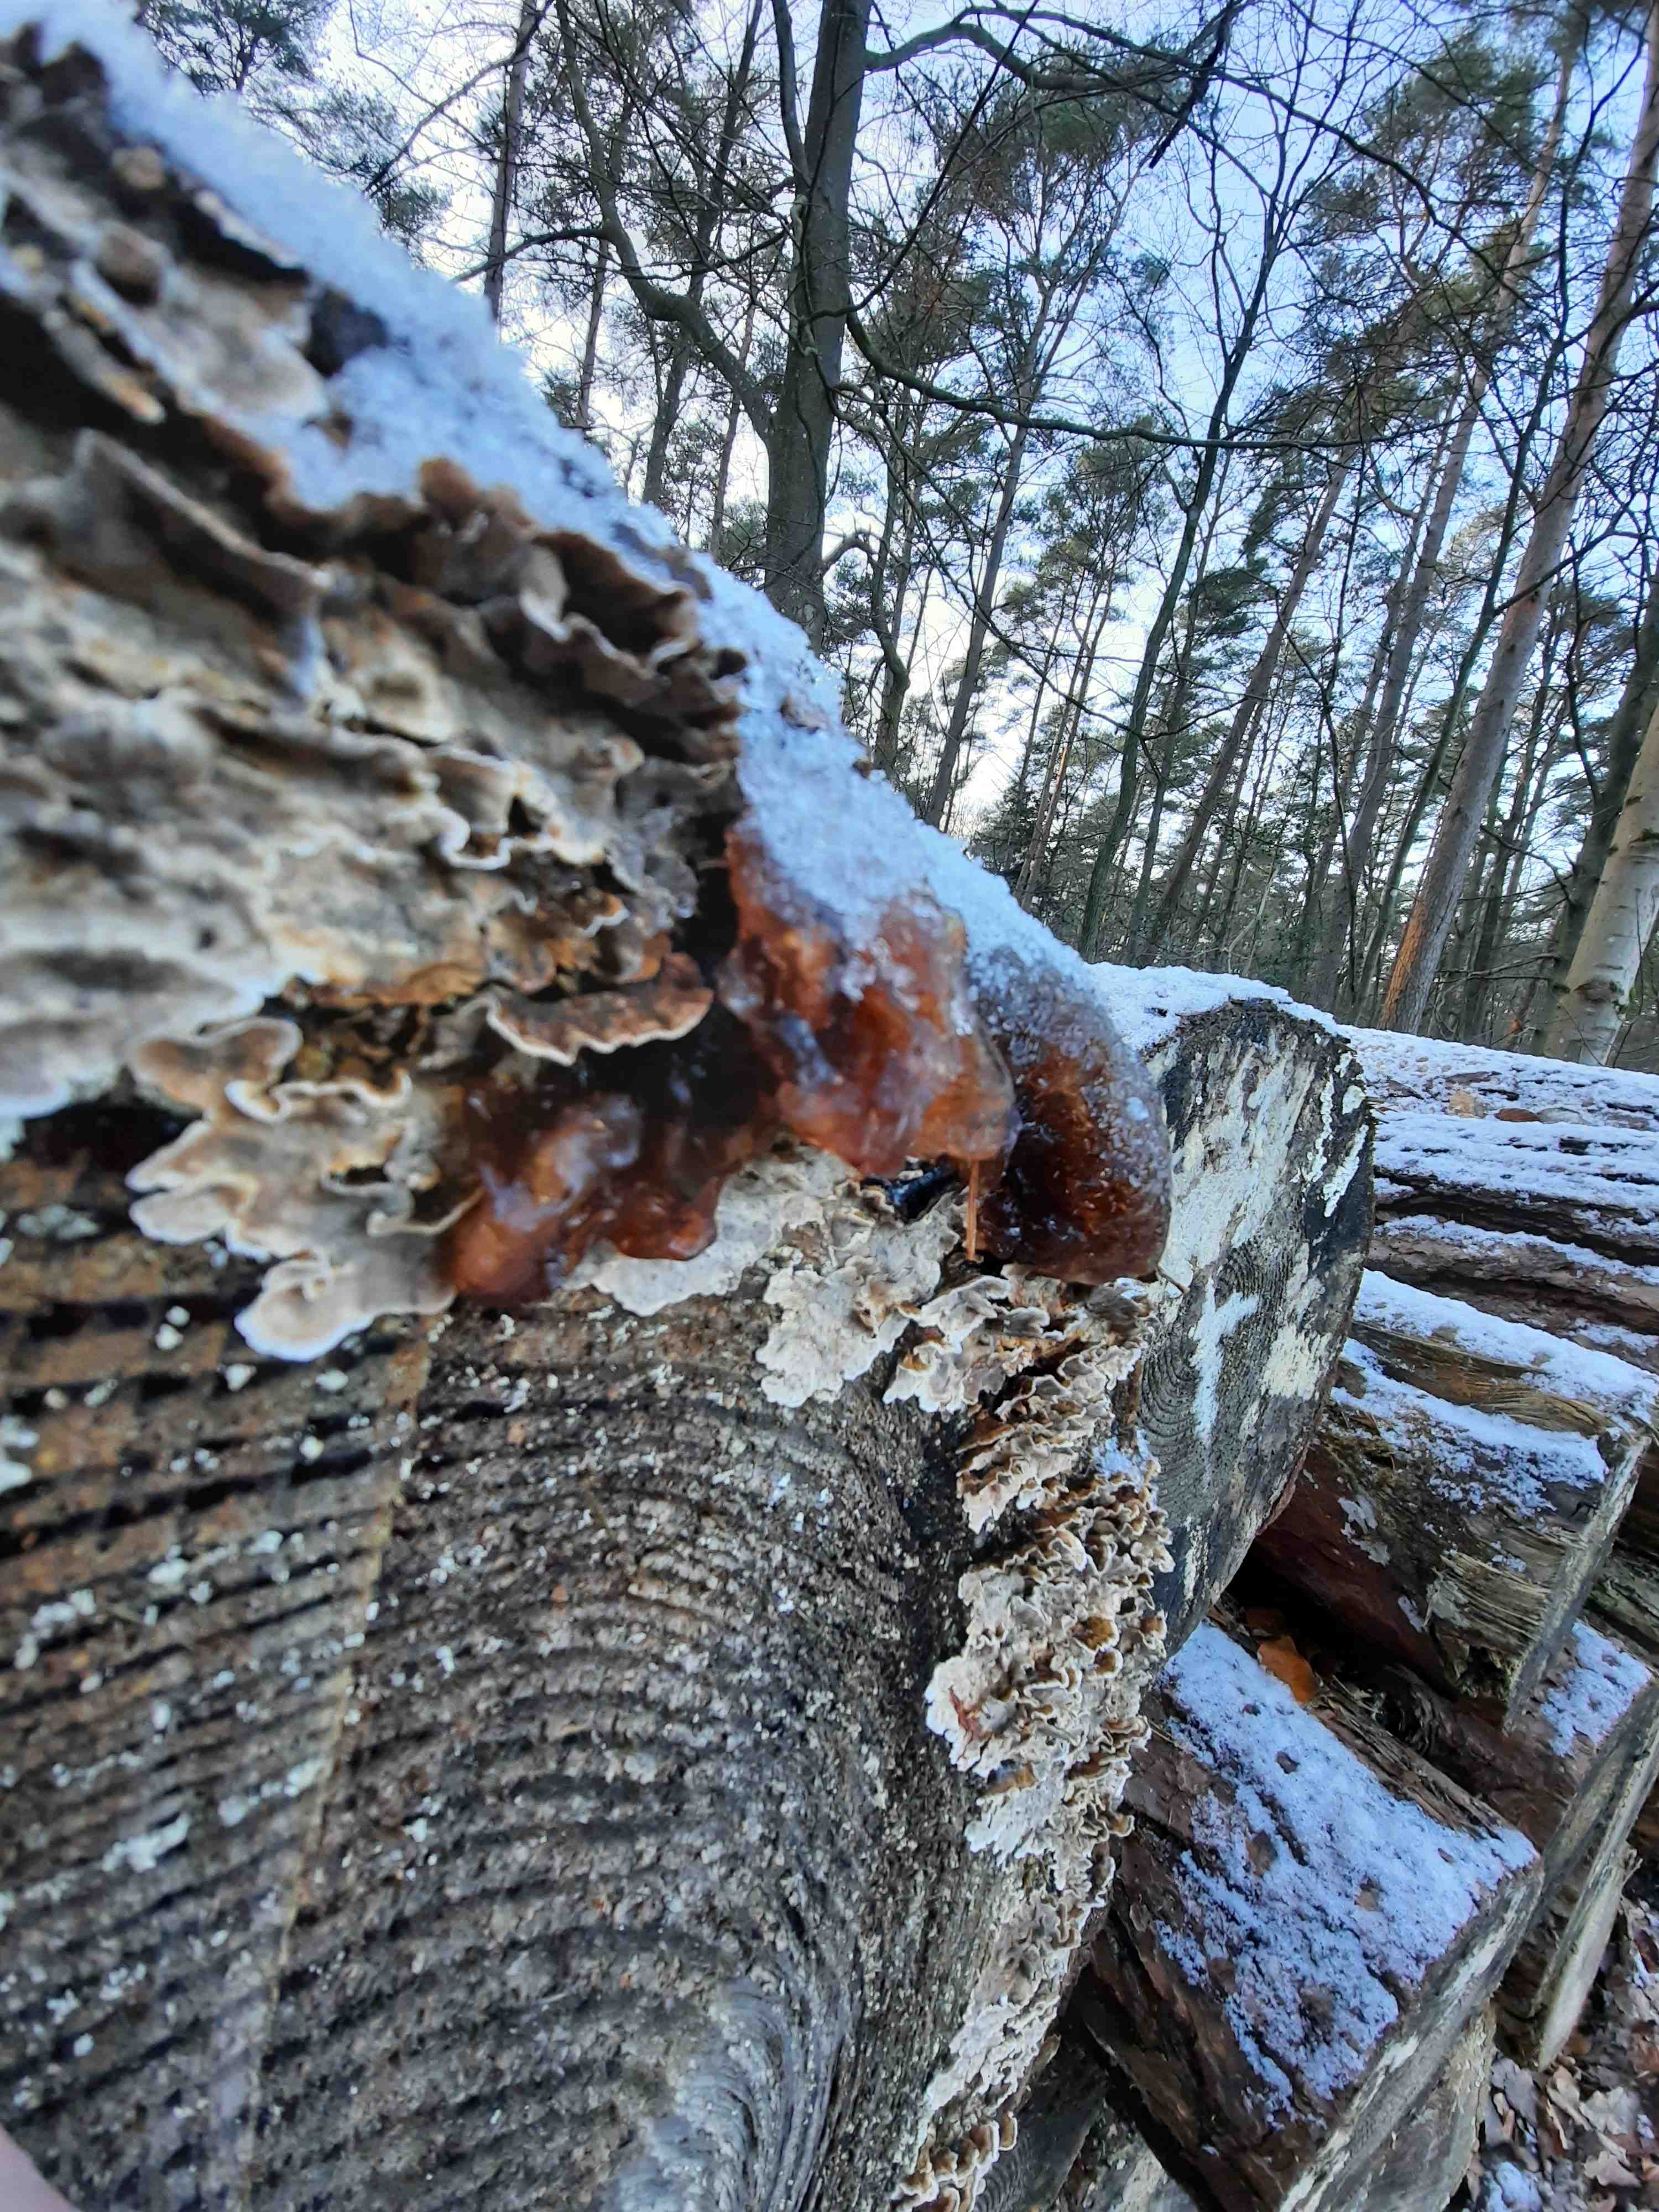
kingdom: Fungi
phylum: Basidiomycota
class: Tremellomycetes
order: Tremellales
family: Tremellaceae
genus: Phaeotremella
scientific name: Phaeotremella foliacea
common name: brun bævresvamp
